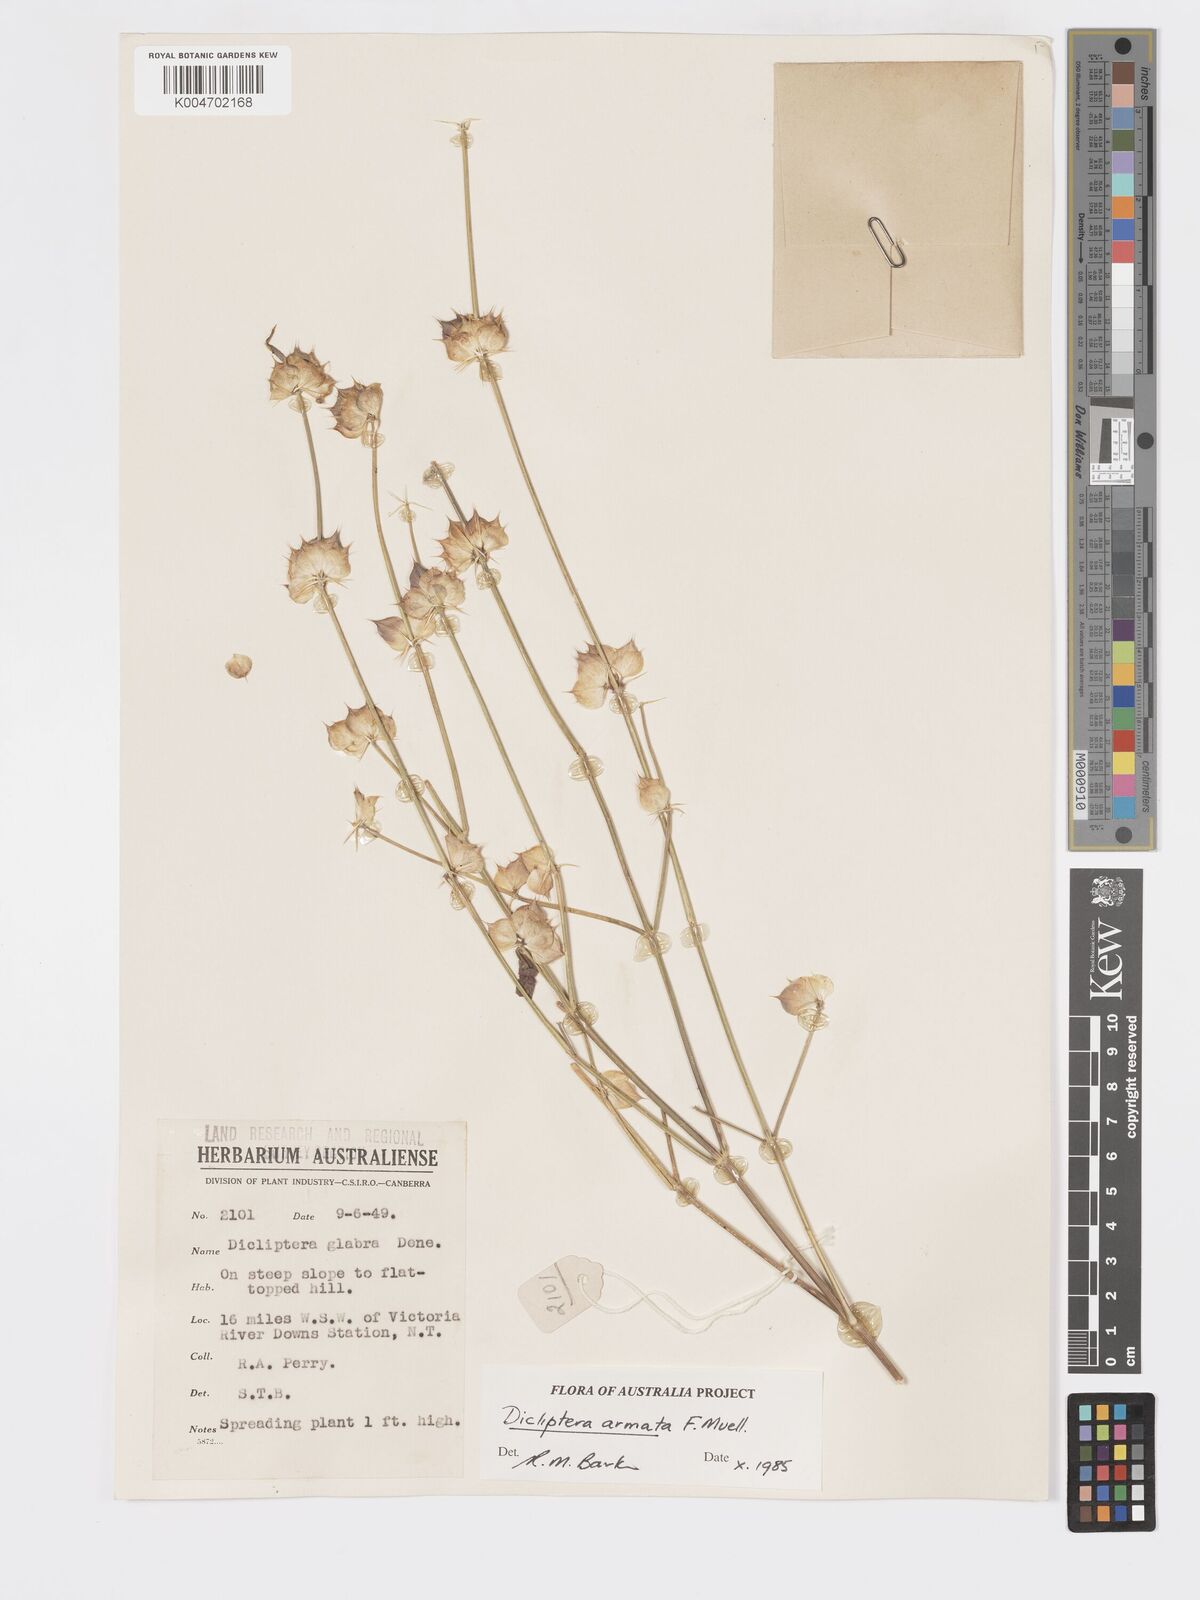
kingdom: Plantae
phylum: Tracheophyta
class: Magnoliopsida
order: Lamiales
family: Acanthaceae
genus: Dicliptera
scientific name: Dicliptera armata
